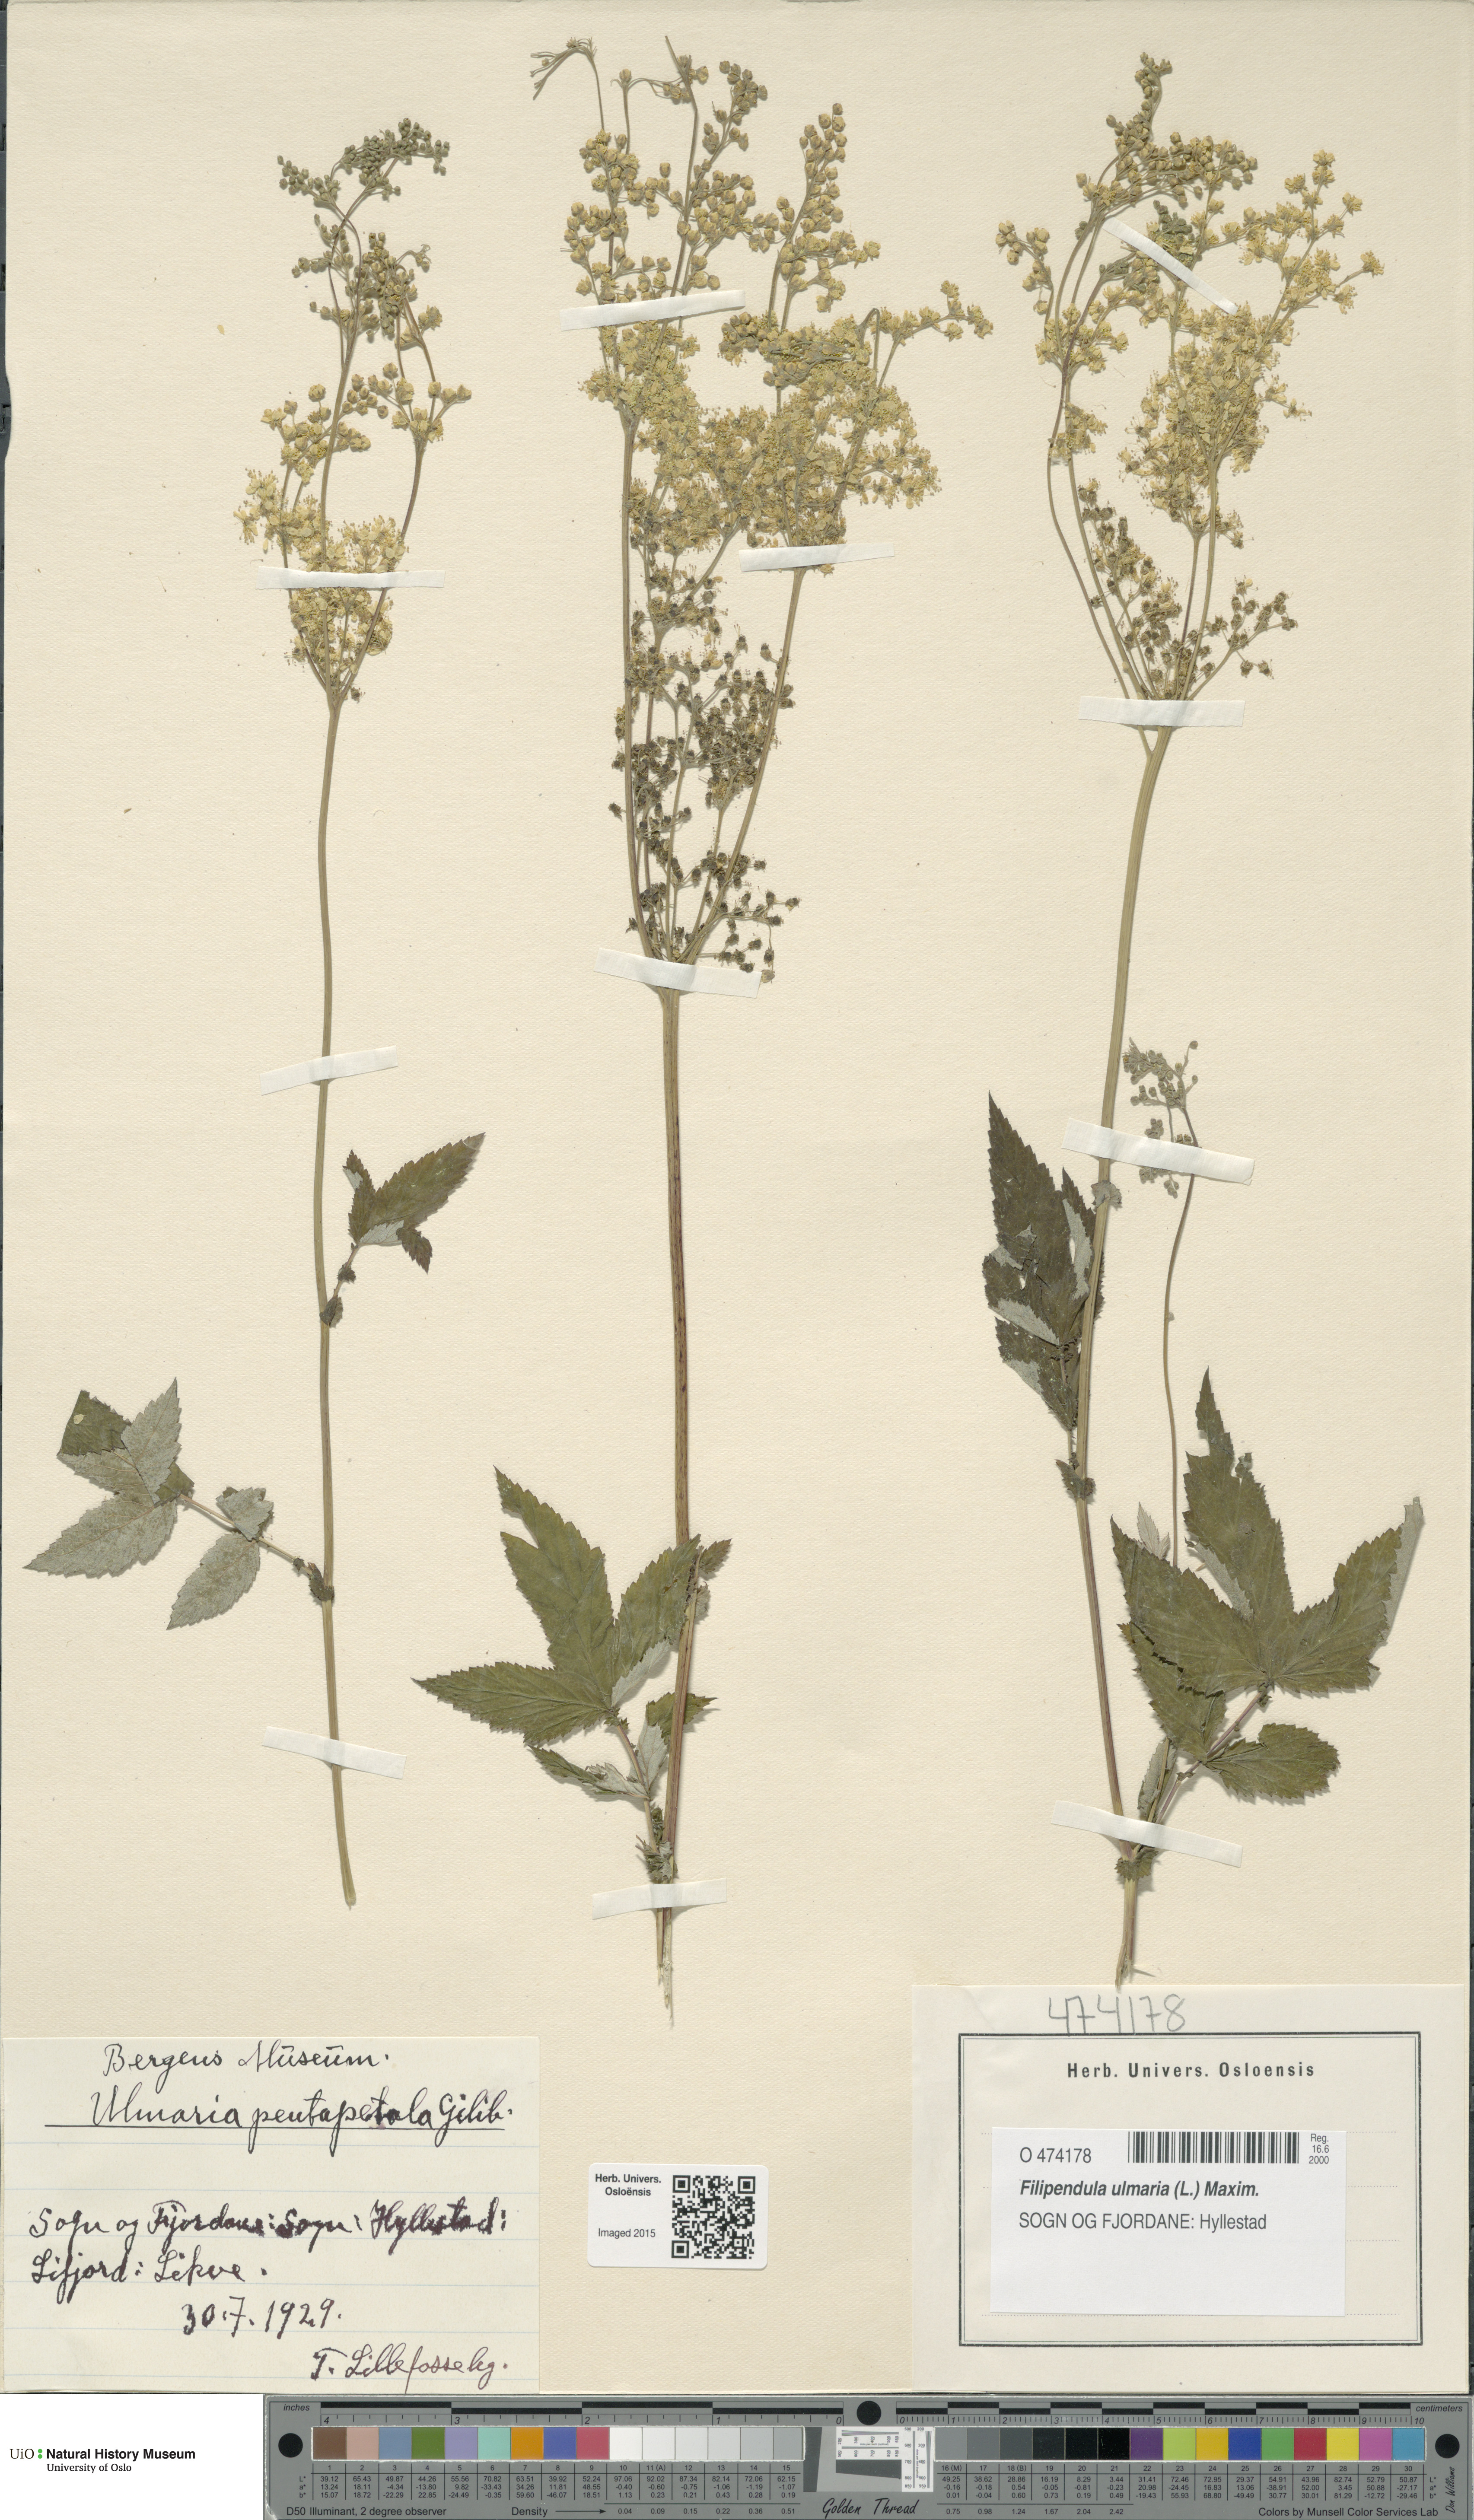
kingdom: Plantae
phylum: Tracheophyta
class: Magnoliopsida
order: Rosales
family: Rosaceae
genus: Filipendula
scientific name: Filipendula ulmaria
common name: Meadowsweet
